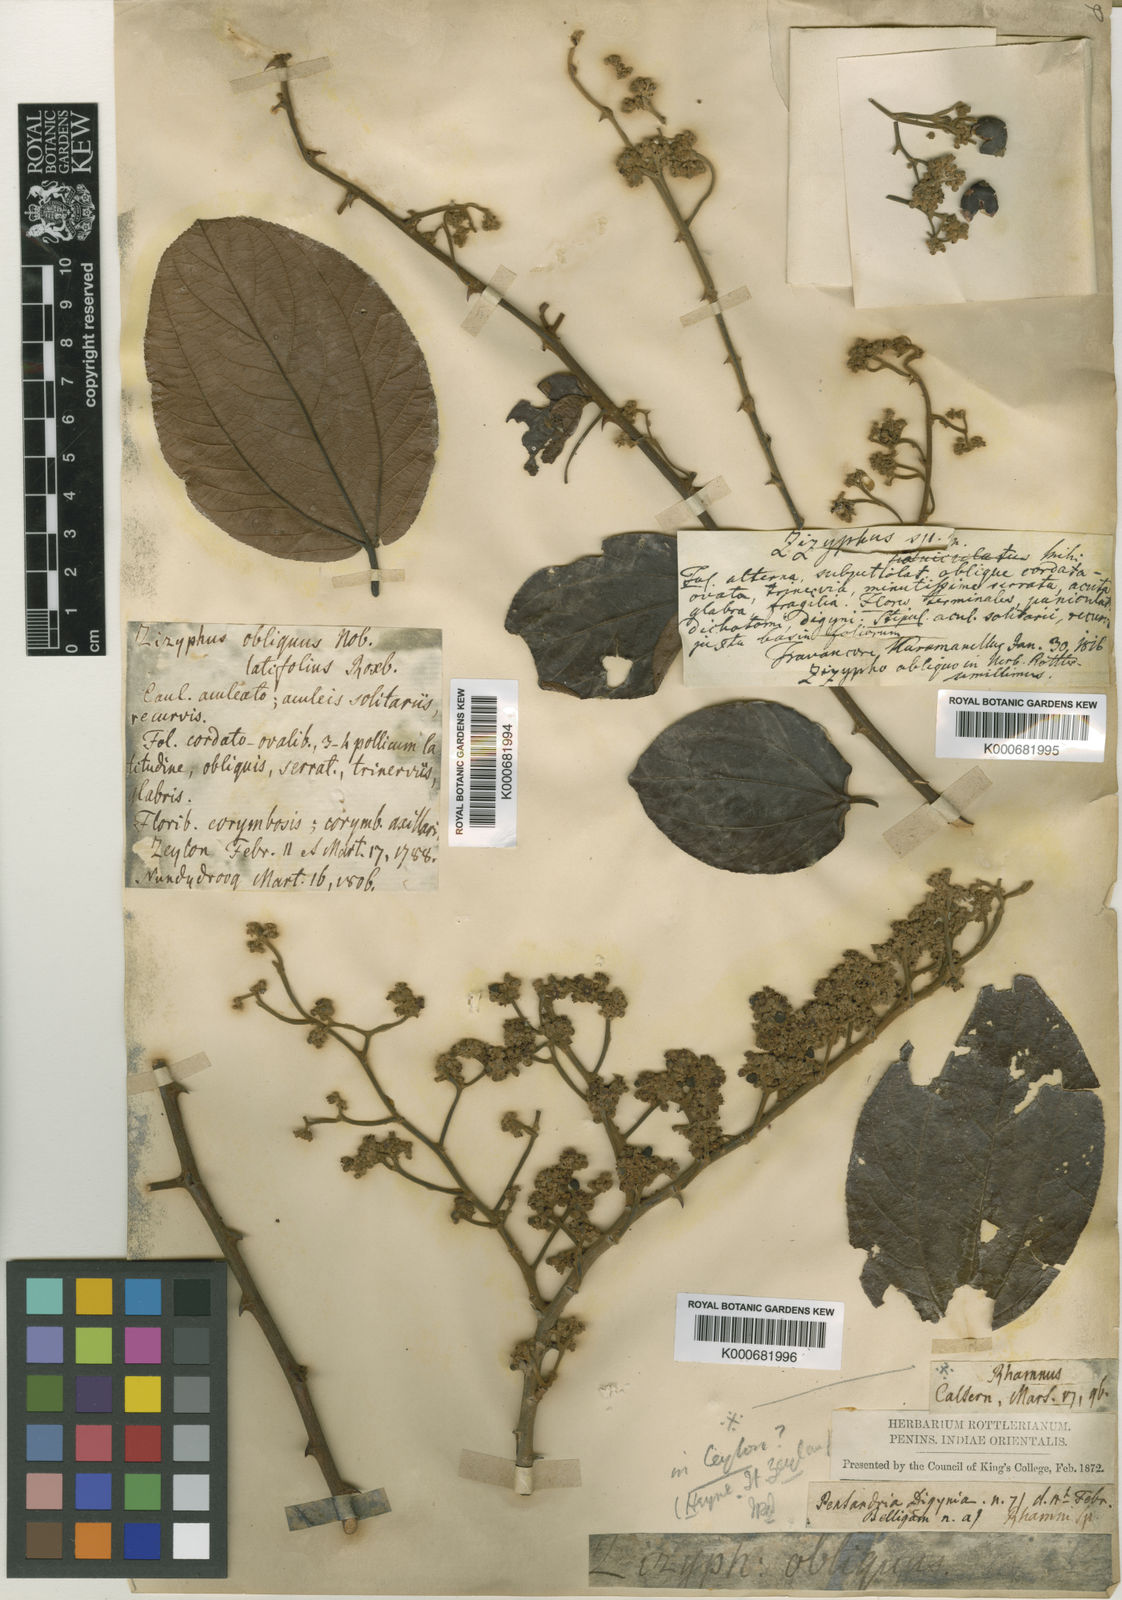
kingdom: Plantae
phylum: Tracheophyta
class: Magnoliopsida
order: Rosales
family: Rhamnaceae
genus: Ziziphus
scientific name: Ziziphus rugosa
